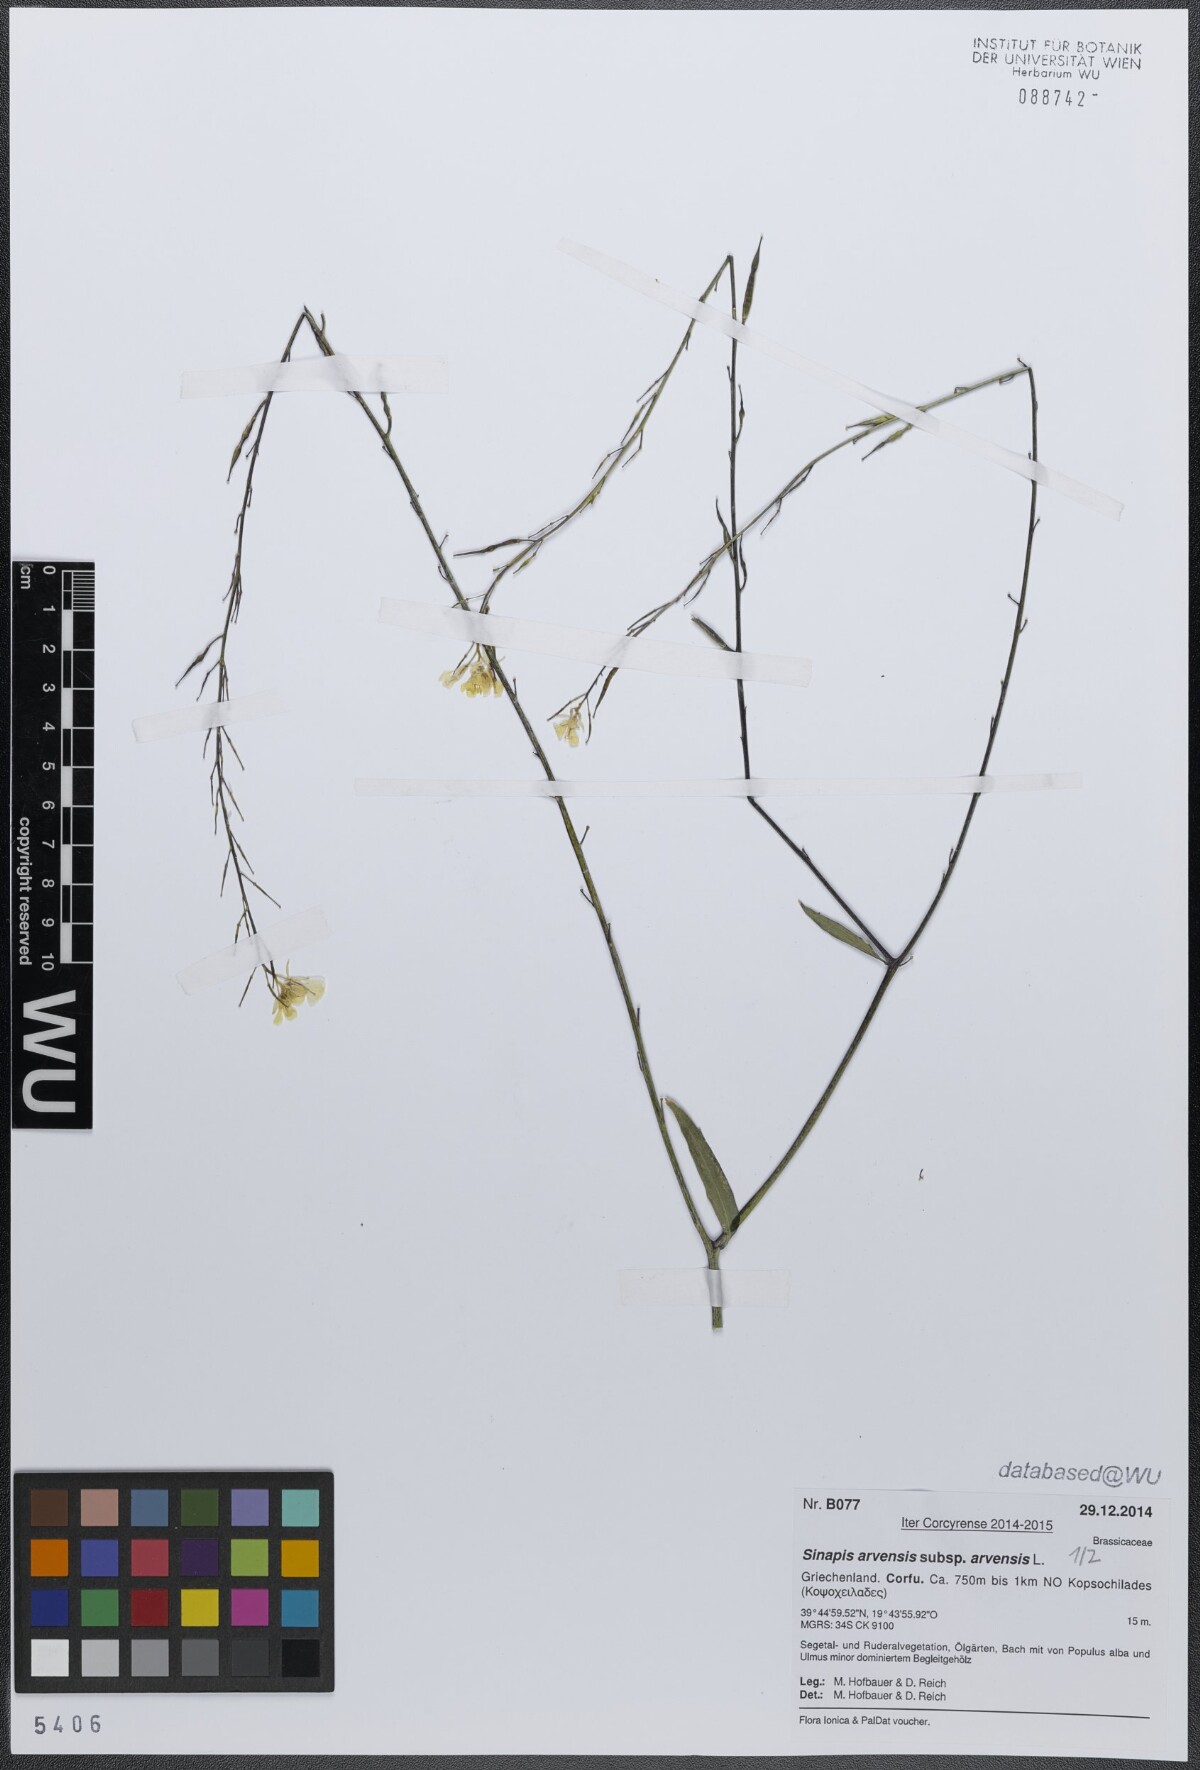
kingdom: Plantae
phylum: Tracheophyta
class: Magnoliopsida
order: Brassicales
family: Brassicaceae
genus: Sinapis
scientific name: Sinapis arvensis
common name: Charlock
